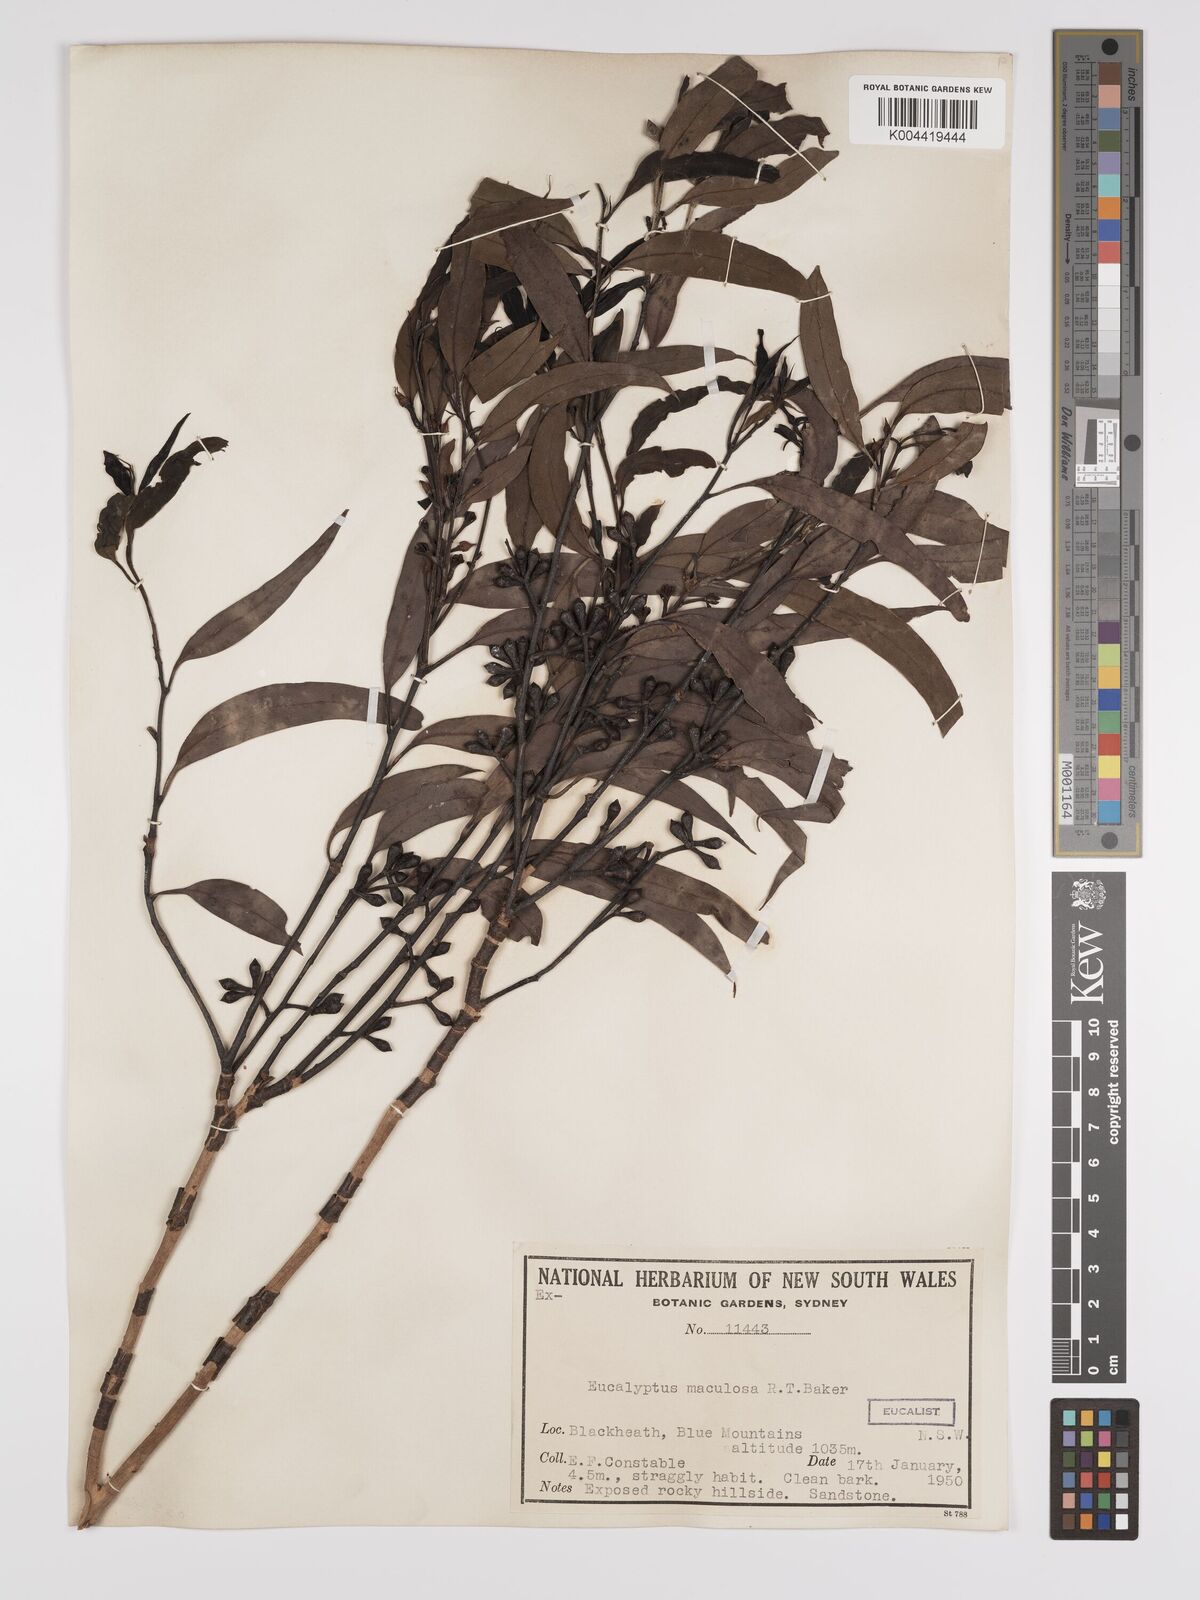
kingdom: Plantae
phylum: Tracheophyta
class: Magnoliopsida
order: Myrtales
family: Myrtaceae
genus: Eucalyptus
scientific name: Eucalyptus mannifera
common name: Manna gum
